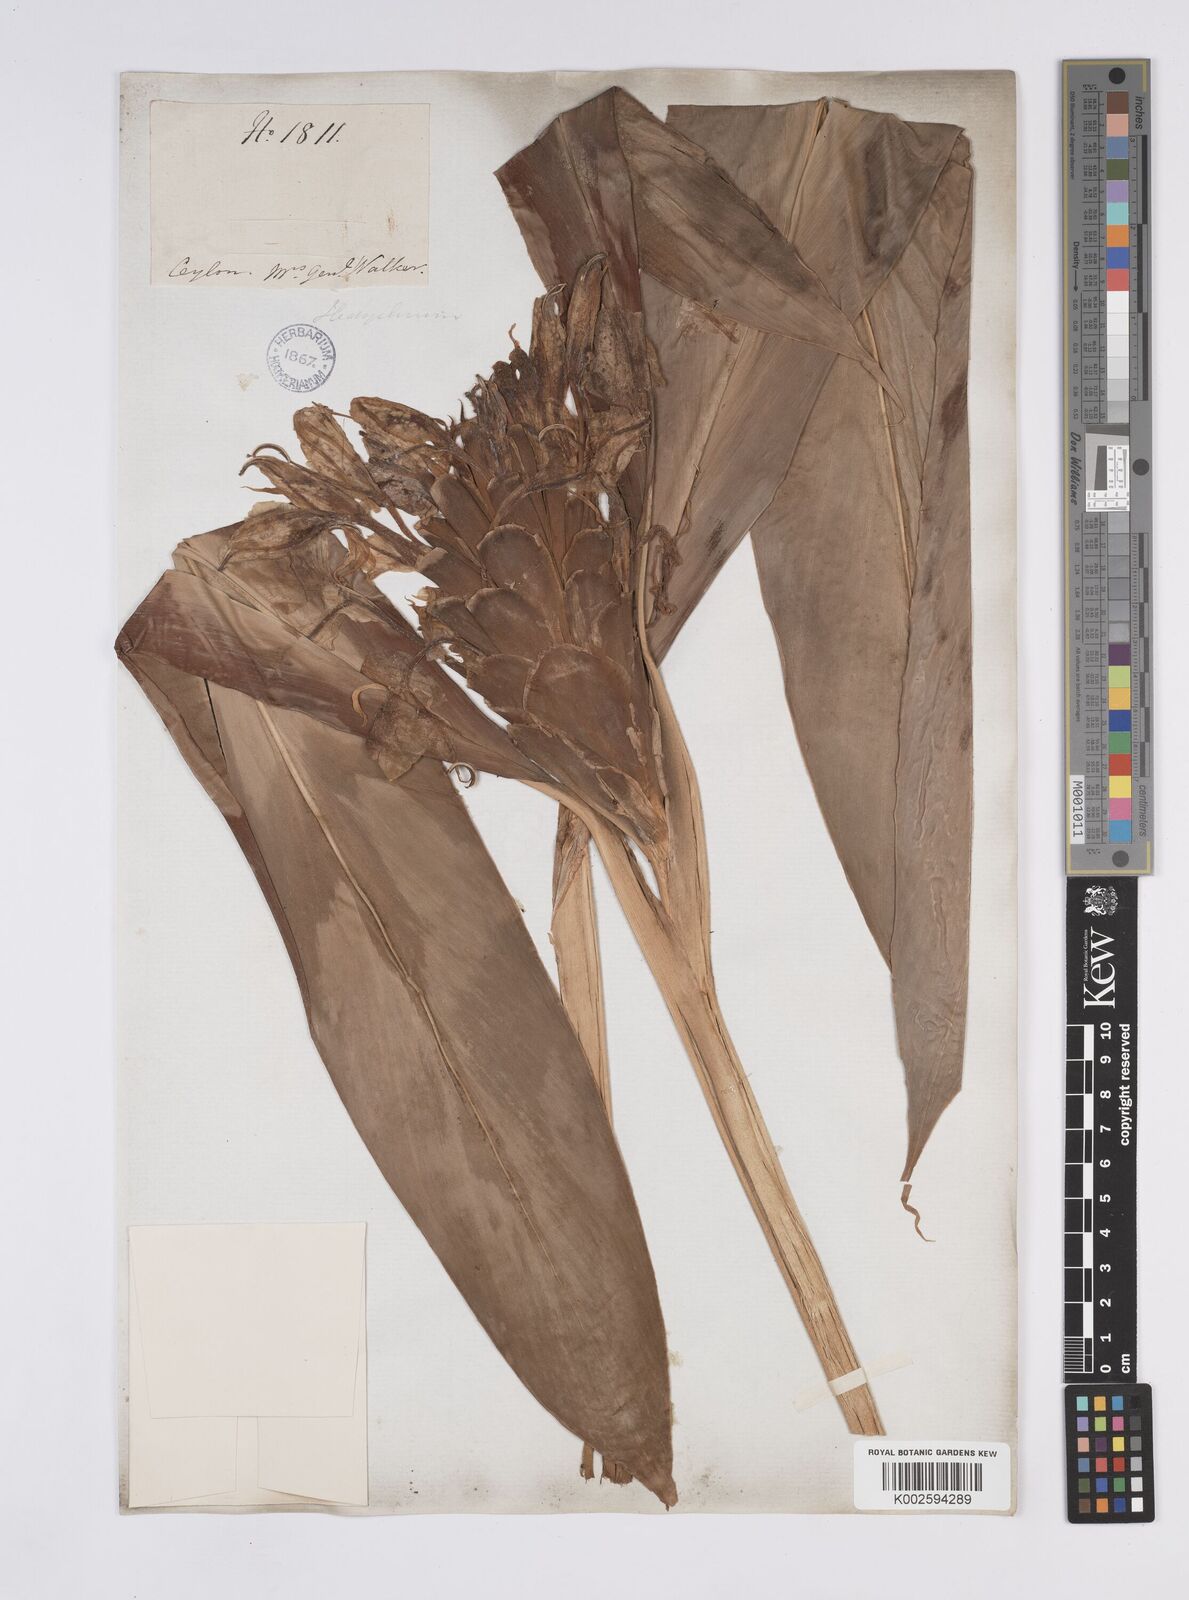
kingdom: Plantae
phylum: Tracheophyta
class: Liliopsida
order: Zingiberales
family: Zingiberaceae
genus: Hedychium
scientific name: Hedychium coronarium
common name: White garland-lily
